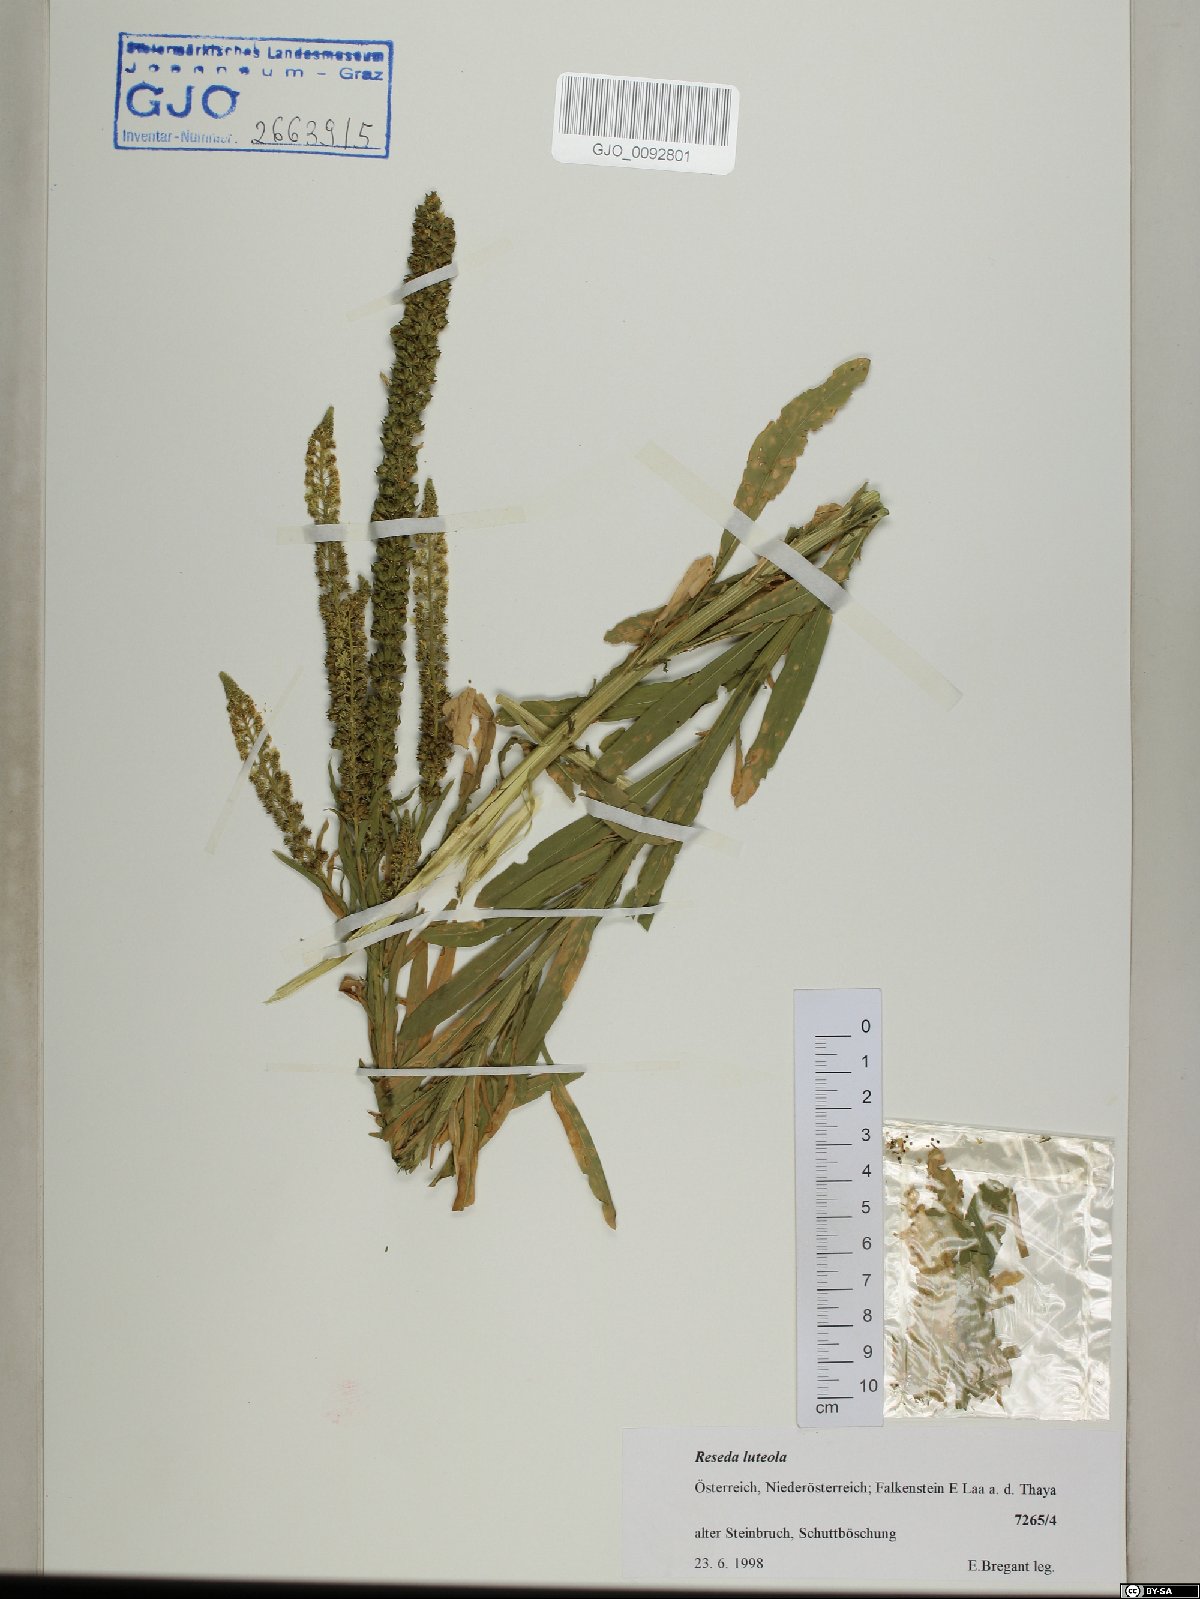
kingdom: Plantae
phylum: Tracheophyta
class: Magnoliopsida
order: Brassicales
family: Resedaceae
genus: Reseda
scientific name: Reseda luteola
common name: Weld
